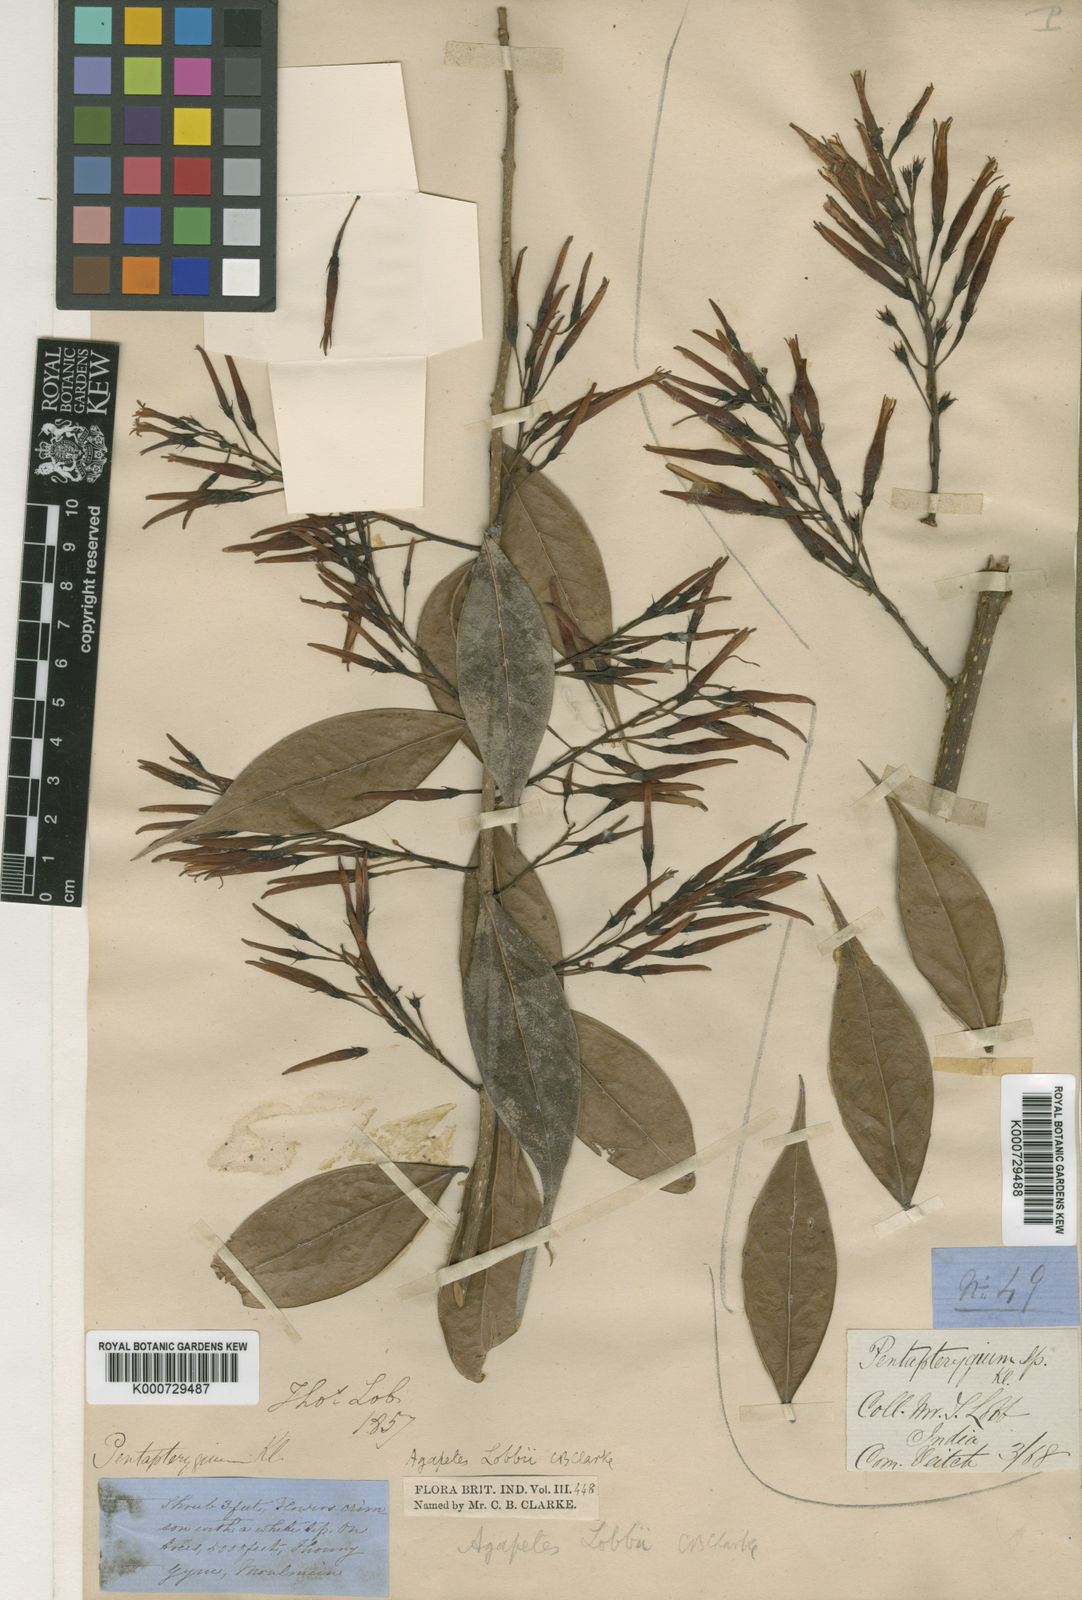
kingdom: Plantae
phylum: Tracheophyta
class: Magnoliopsida
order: Ericales
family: Ericaceae
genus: Agapetes
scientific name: Agapetes lobbii
